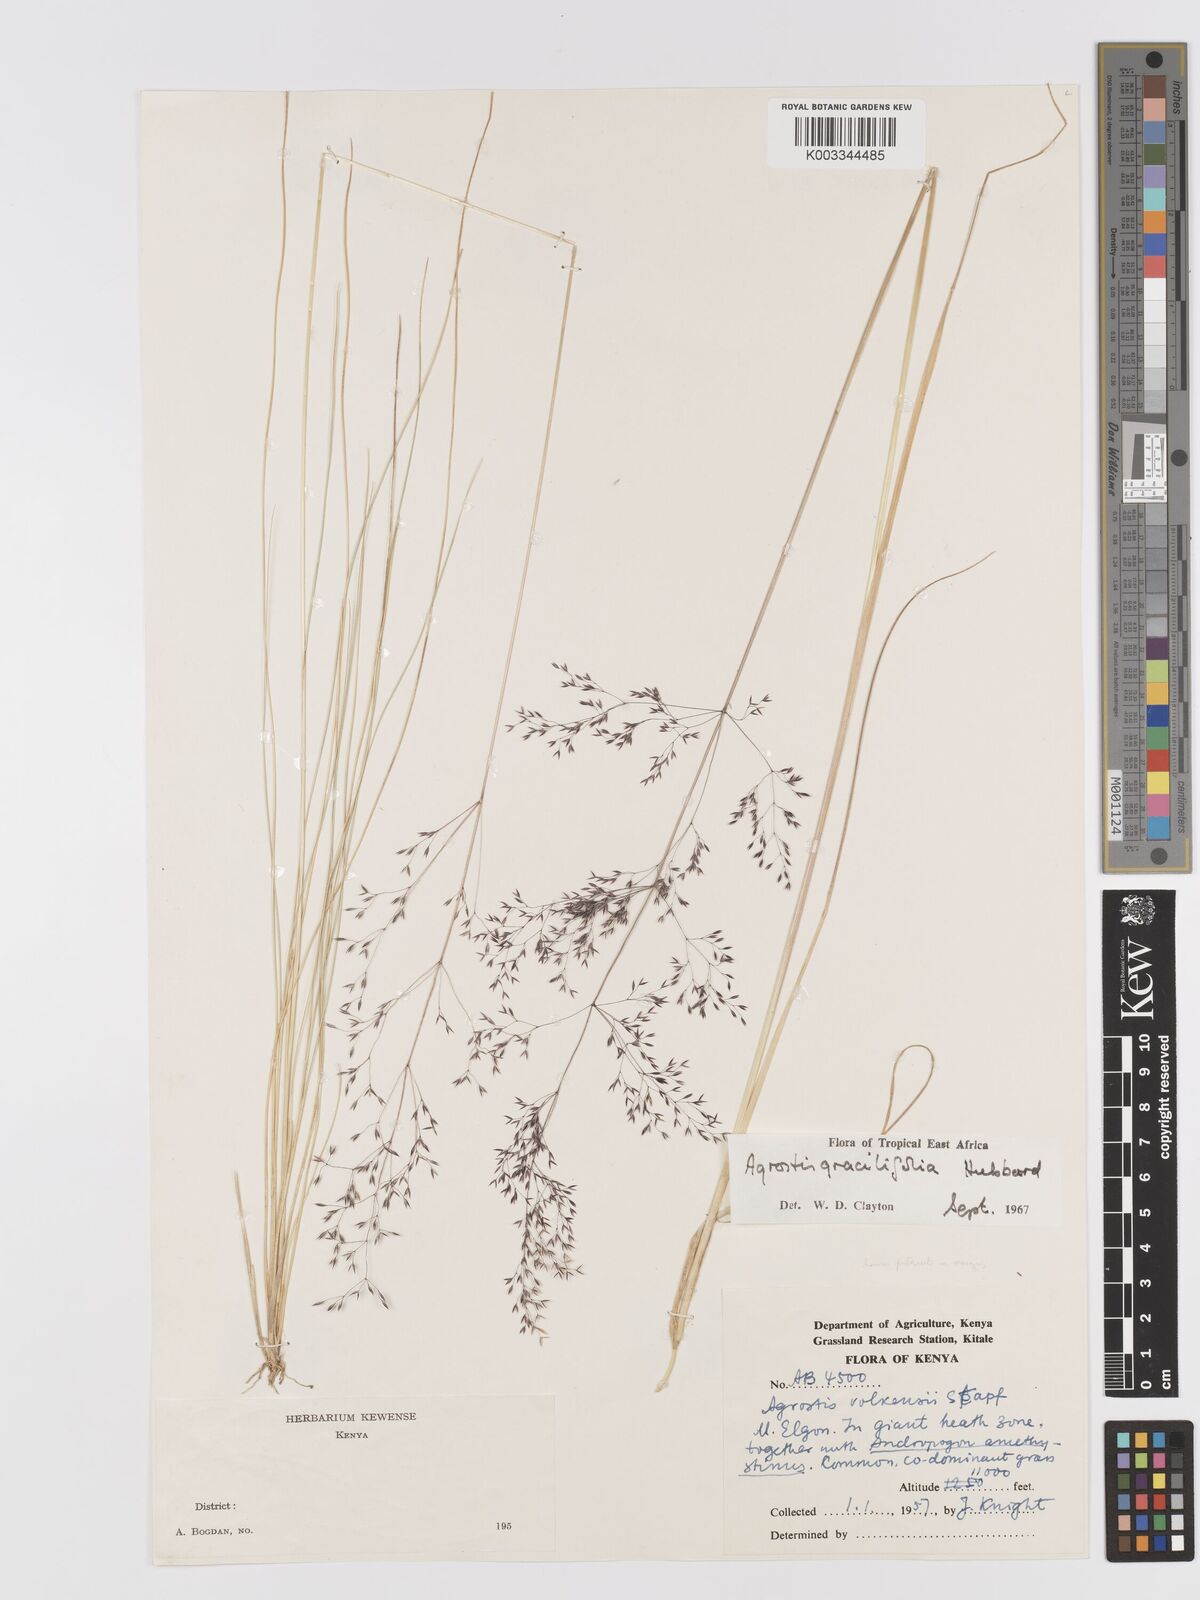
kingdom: Plantae
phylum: Tracheophyta
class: Liliopsida
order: Poales
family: Poaceae
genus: Agrostis
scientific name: Agrostis gracilifolia
